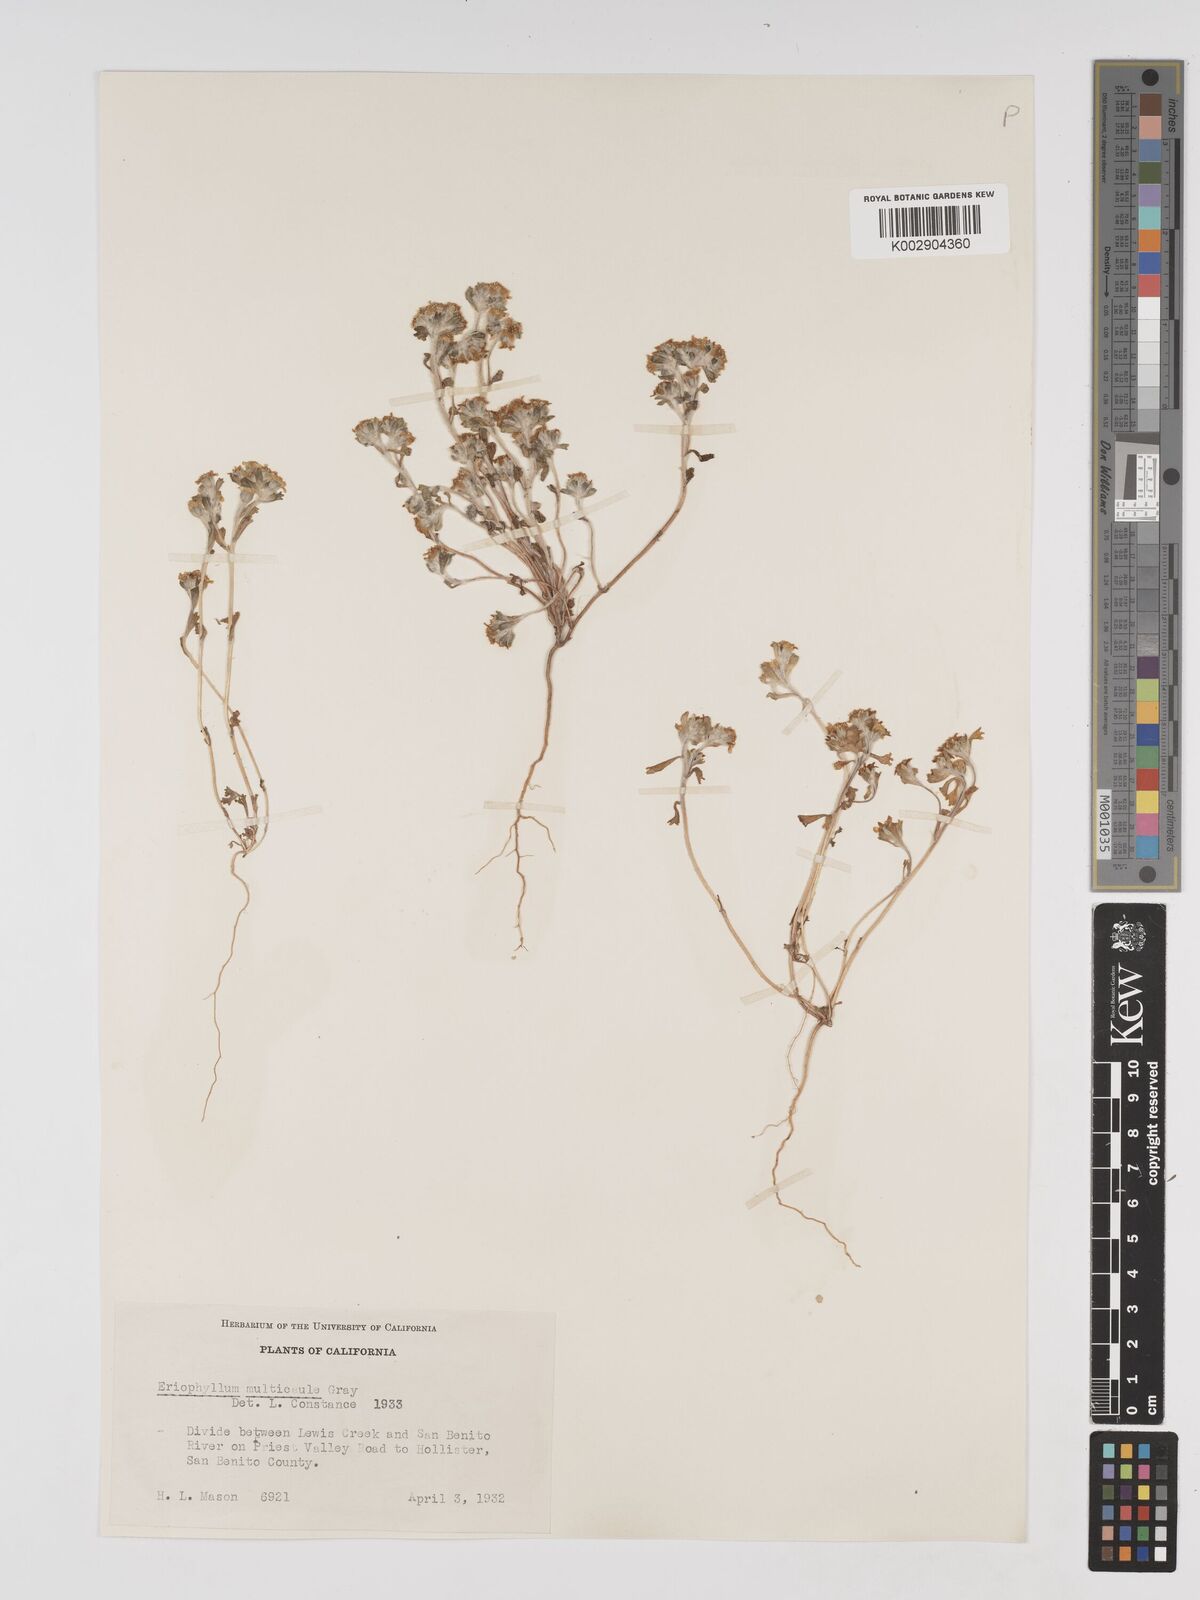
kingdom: Plantae
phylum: Tracheophyta
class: Magnoliopsida
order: Asterales
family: Asteraceae
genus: Eriophyllum
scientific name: Eriophyllum multicaule
